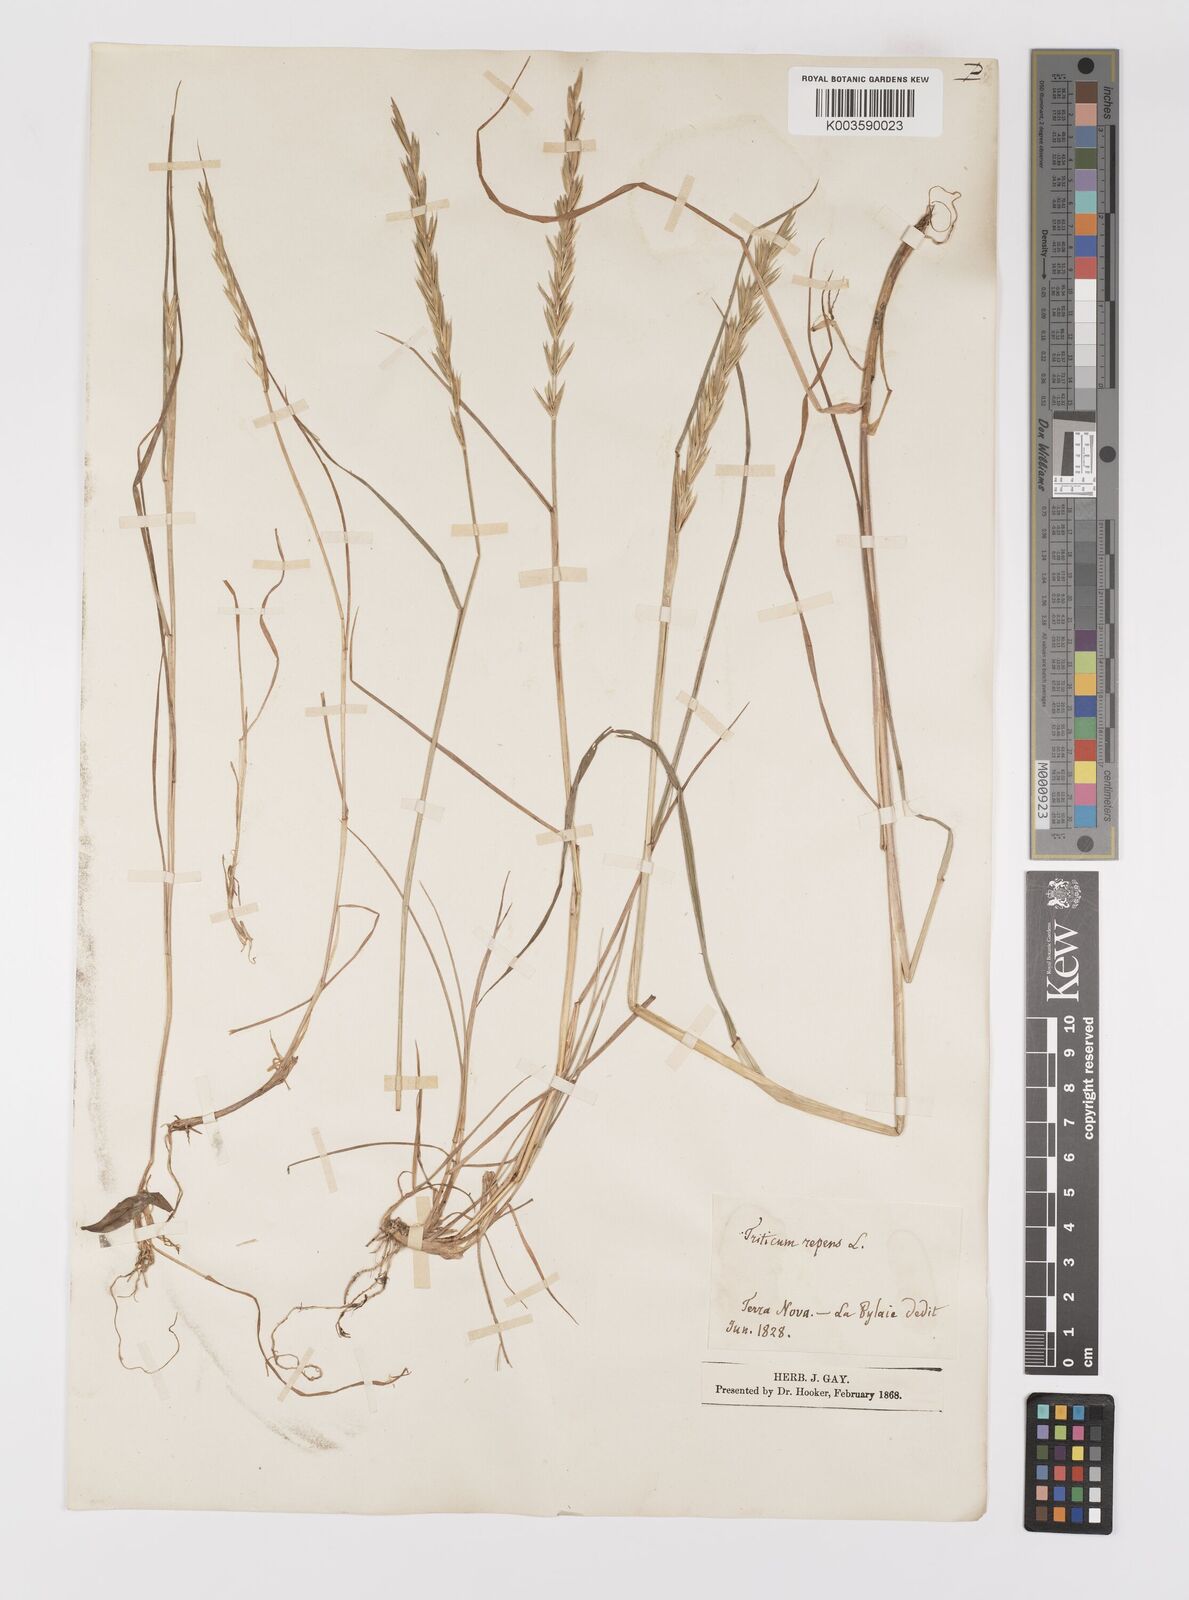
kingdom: Plantae
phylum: Tracheophyta
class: Liliopsida
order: Poales
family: Poaceae
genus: Elymus
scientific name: Elymus repens
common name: Quackgrass
